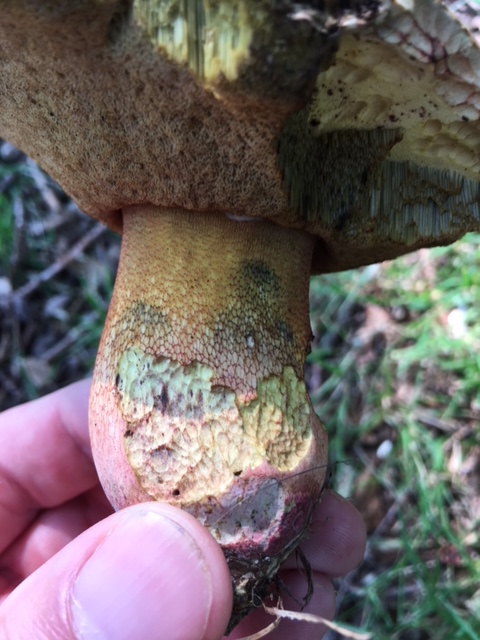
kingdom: Fungi
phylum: Basidiomycota
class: Agaricomycetes
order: Boletales
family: Boletaceae
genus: Rubroboletus
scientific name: Rubroboletus legaliae
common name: djævle-rørhat
